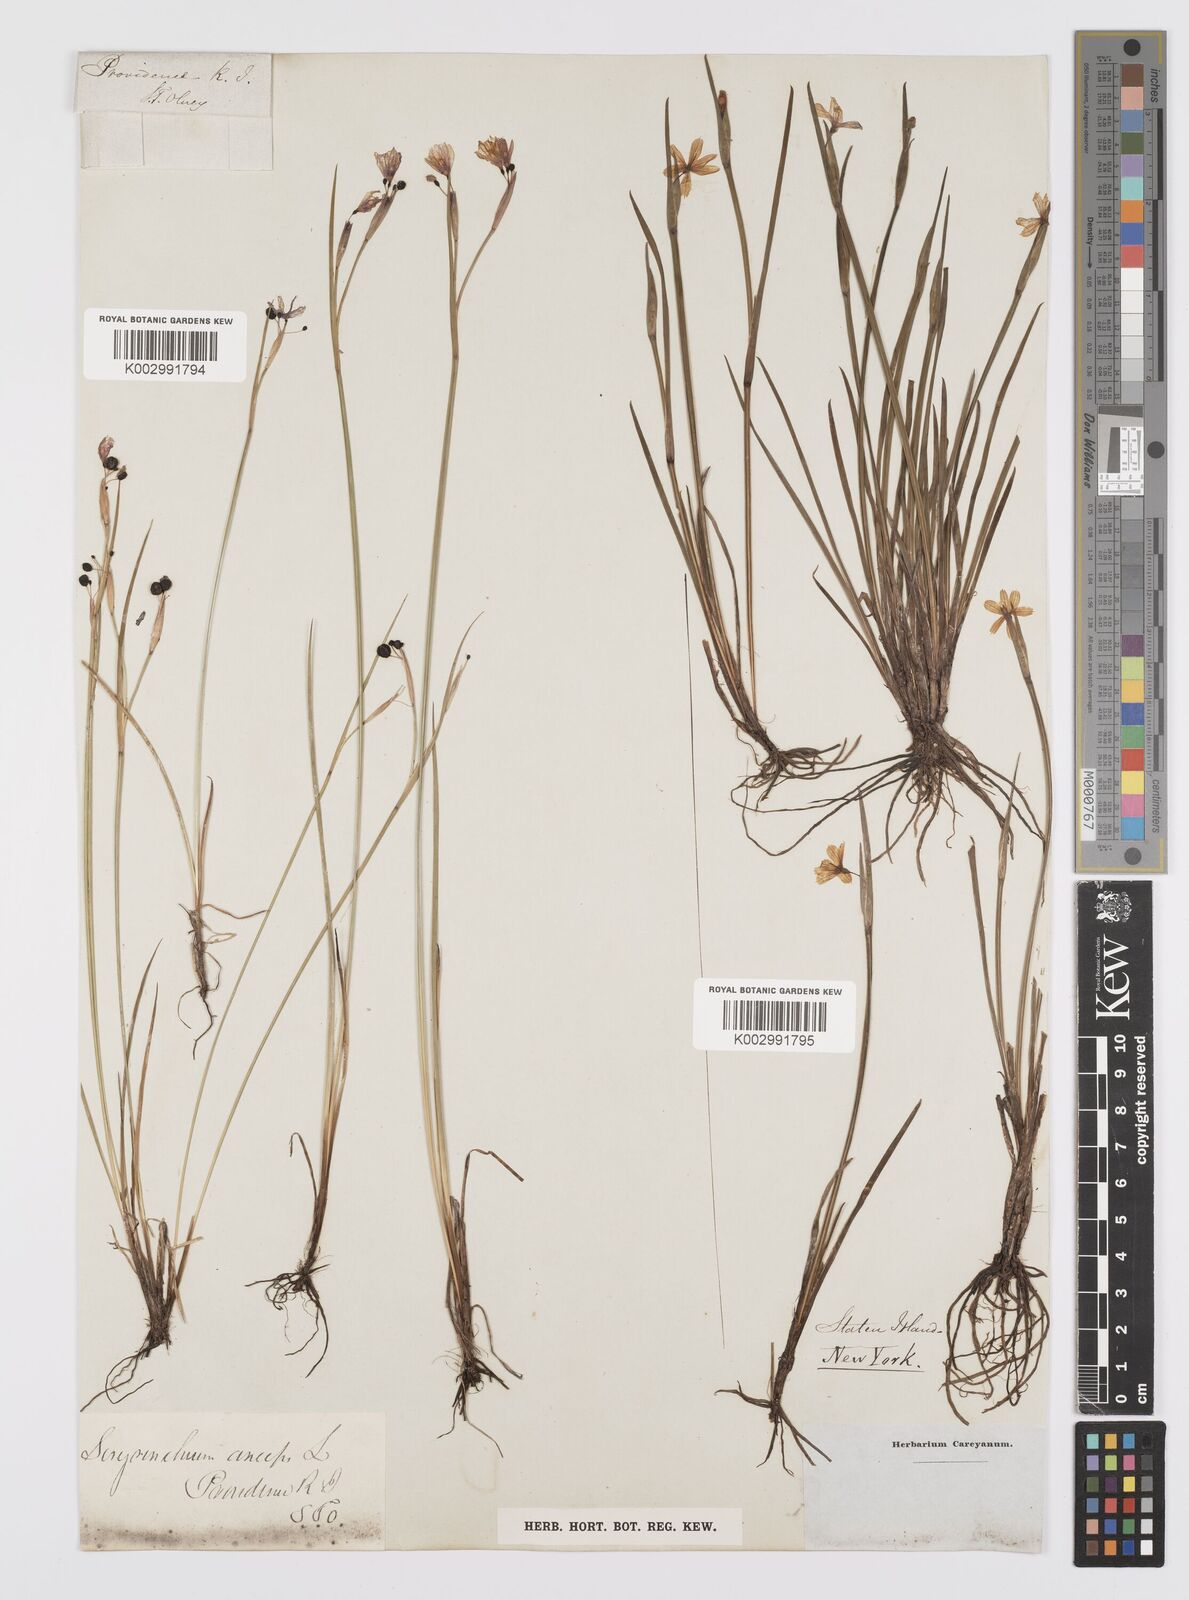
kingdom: Plantae
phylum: Tracheophyta
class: Liliopsida
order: Asparagales
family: Iridaceae
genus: Sisyrinchium
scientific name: Sisyrinchium bermudiana
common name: Blue-eyed-grass
